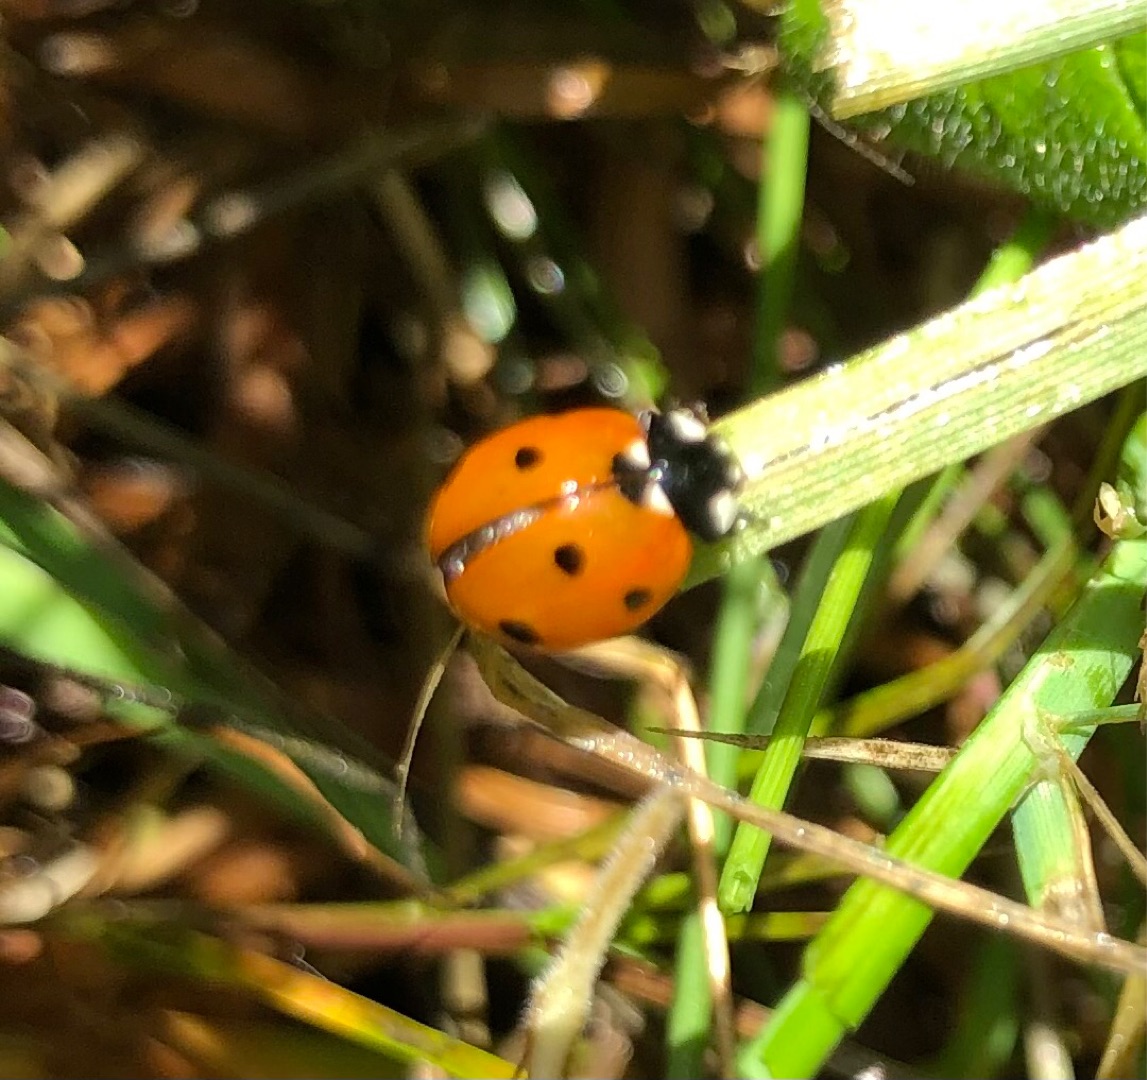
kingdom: Animalia
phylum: Arthropoda
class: Insecta
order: Coleoptera
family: Coccinellidae
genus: Coccinella
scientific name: Coccinella septempunctata
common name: Syvplettet mariehøne
